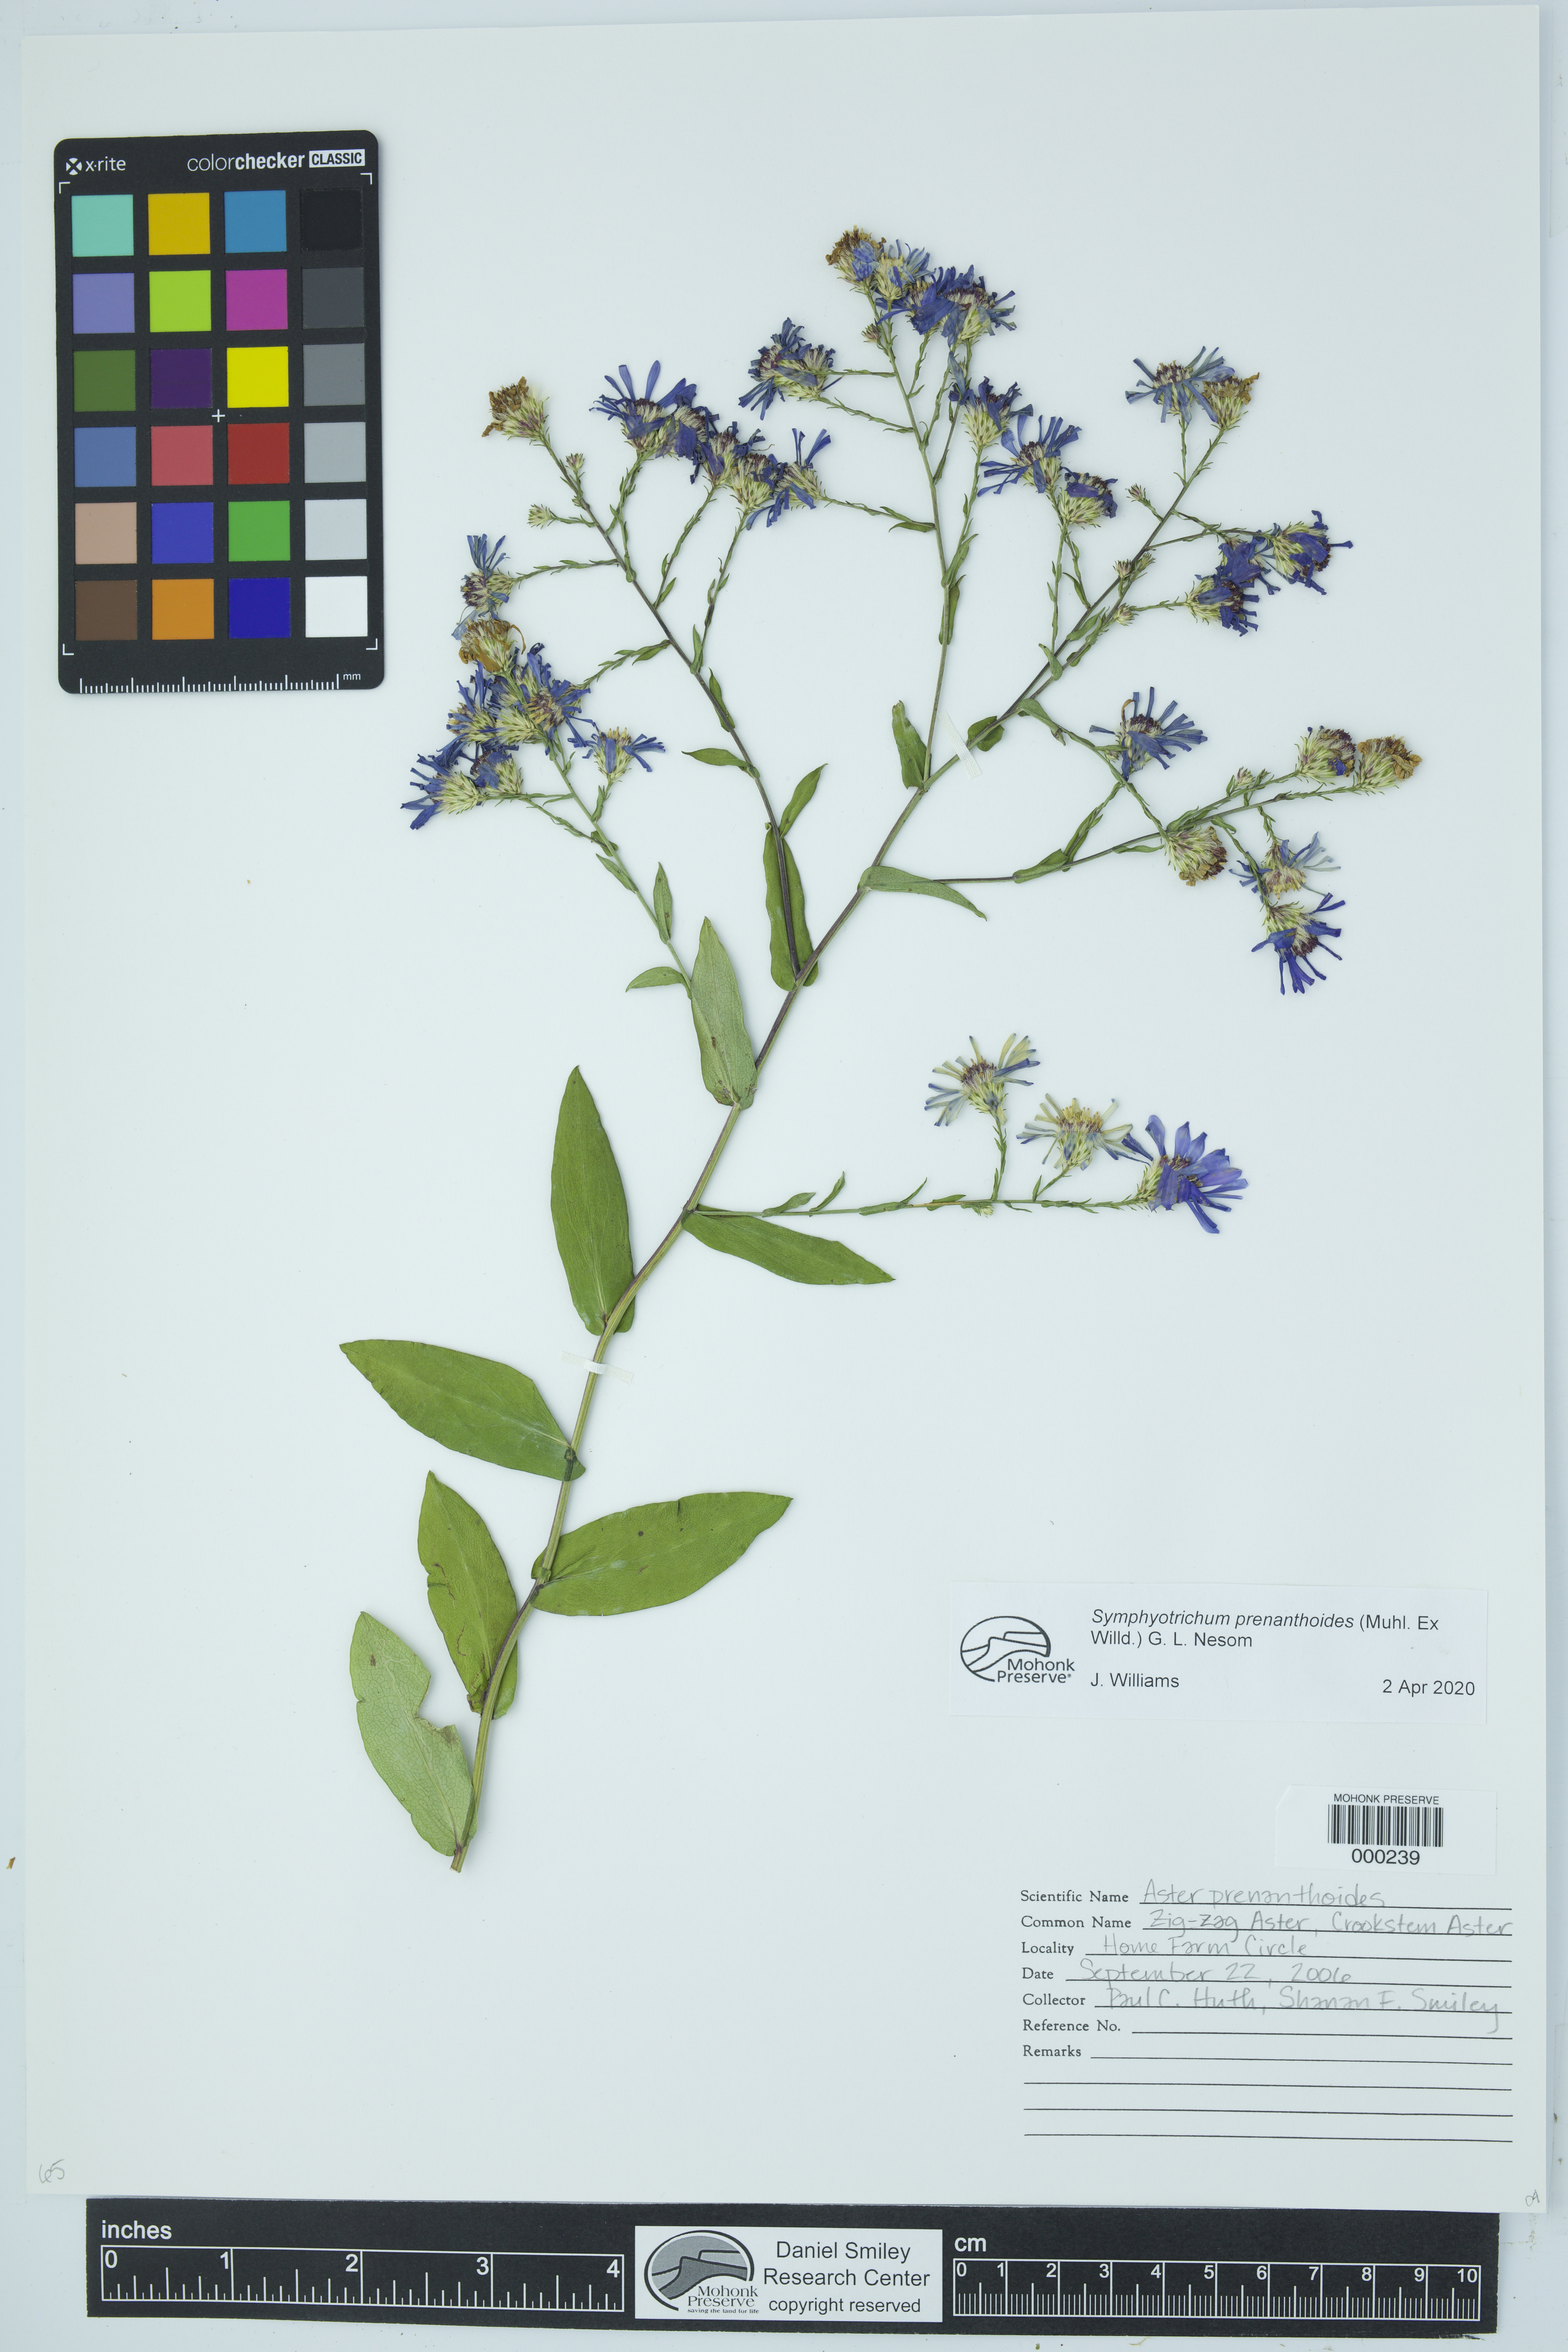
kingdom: Plantae
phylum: Tracheophyta
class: Magnoliopsida
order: Asterales
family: Asteraceae
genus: Symphyotrichum
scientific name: Symphyotrichum prenanthoides
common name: Crooked-stem aster
